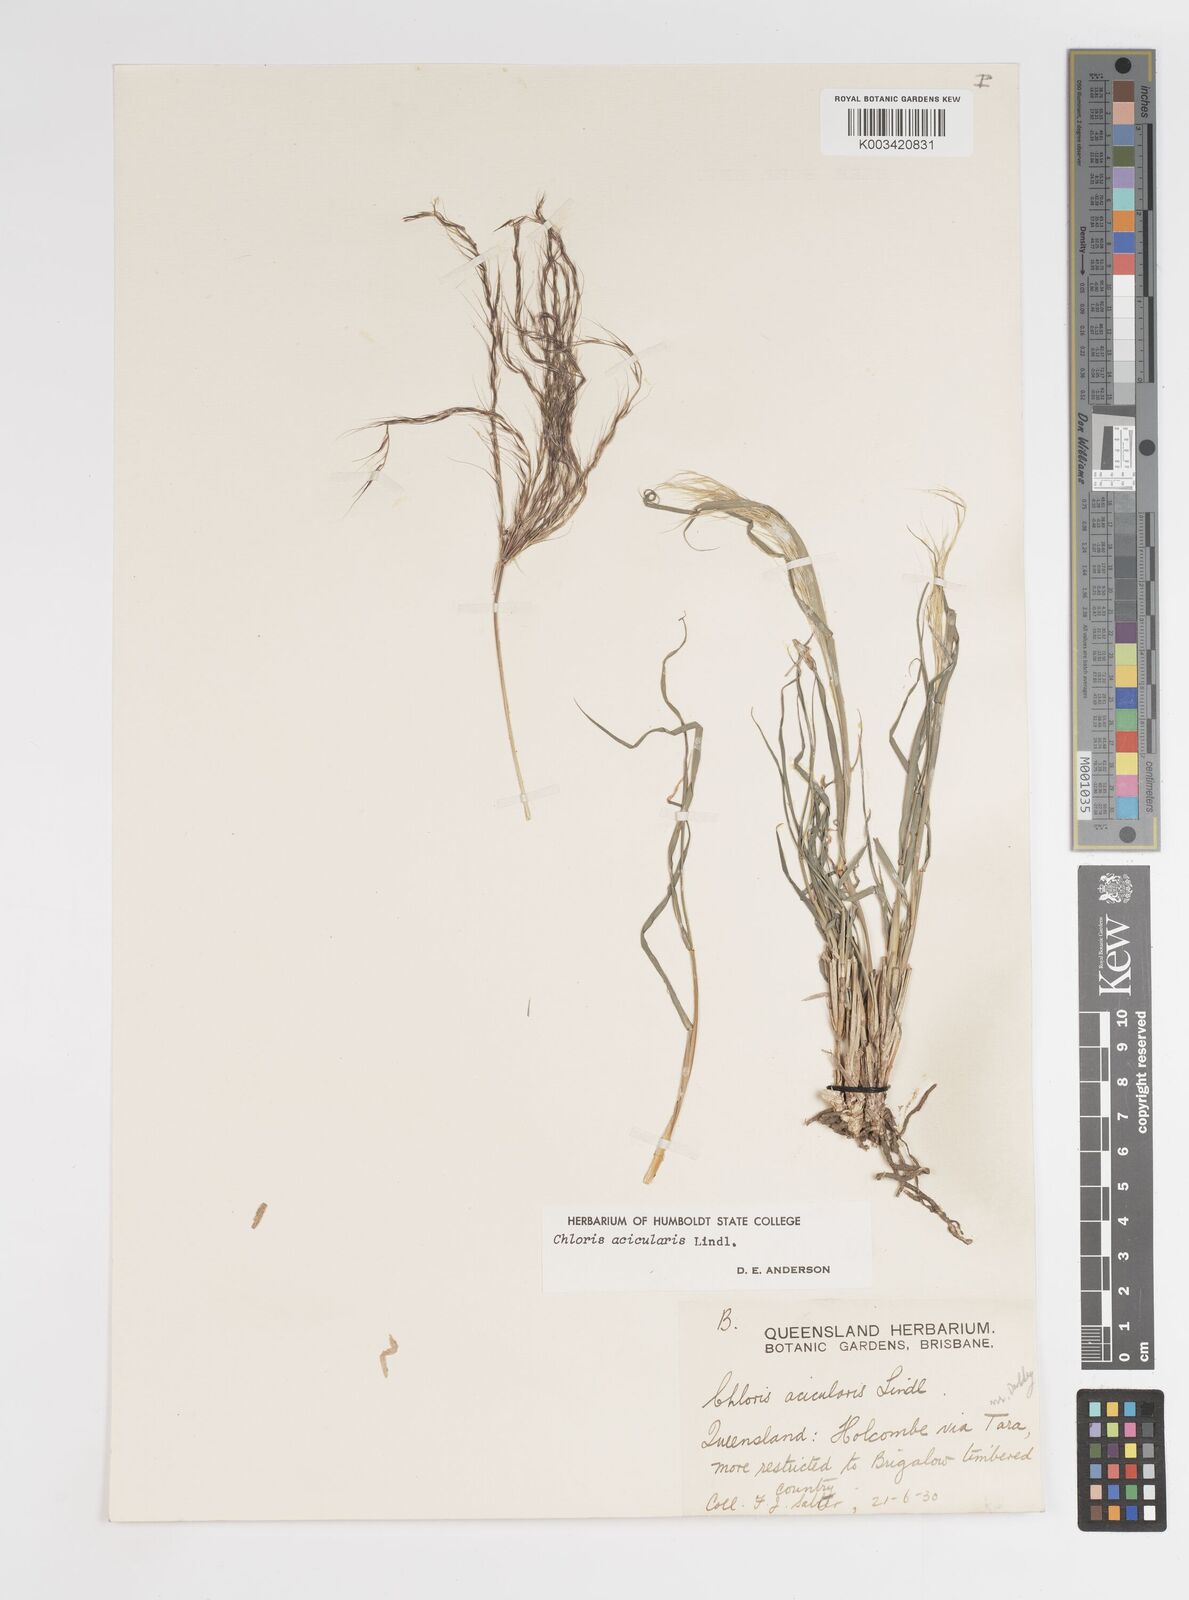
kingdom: Plantae
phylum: Tracheophyta
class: Liliopsida
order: Poales
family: Poaceae
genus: Enteropogon
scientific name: Enteropogon acicularis
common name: Curly windmill grass
